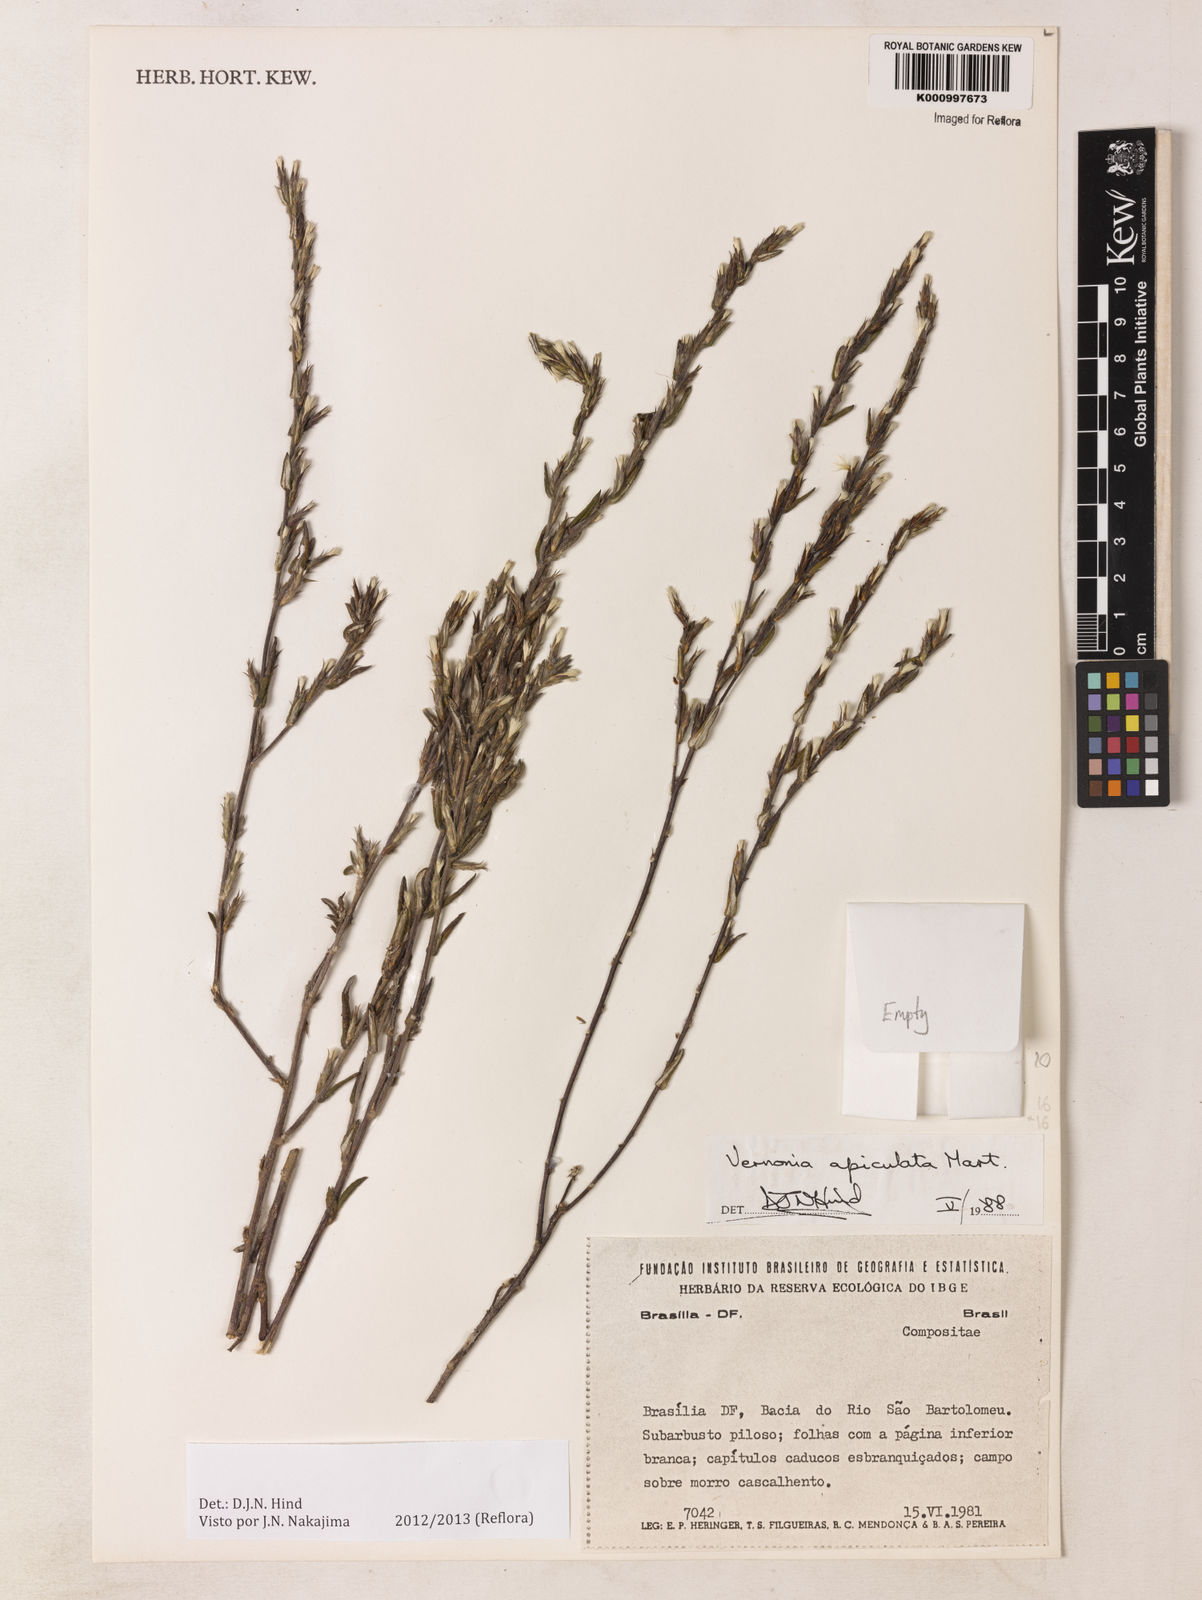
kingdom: Plantae
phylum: Tracheophyta
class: Magnoliopsida
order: Asterales
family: Asteraceae
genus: Stenocephalum
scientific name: Stenocephalum apiculatum
